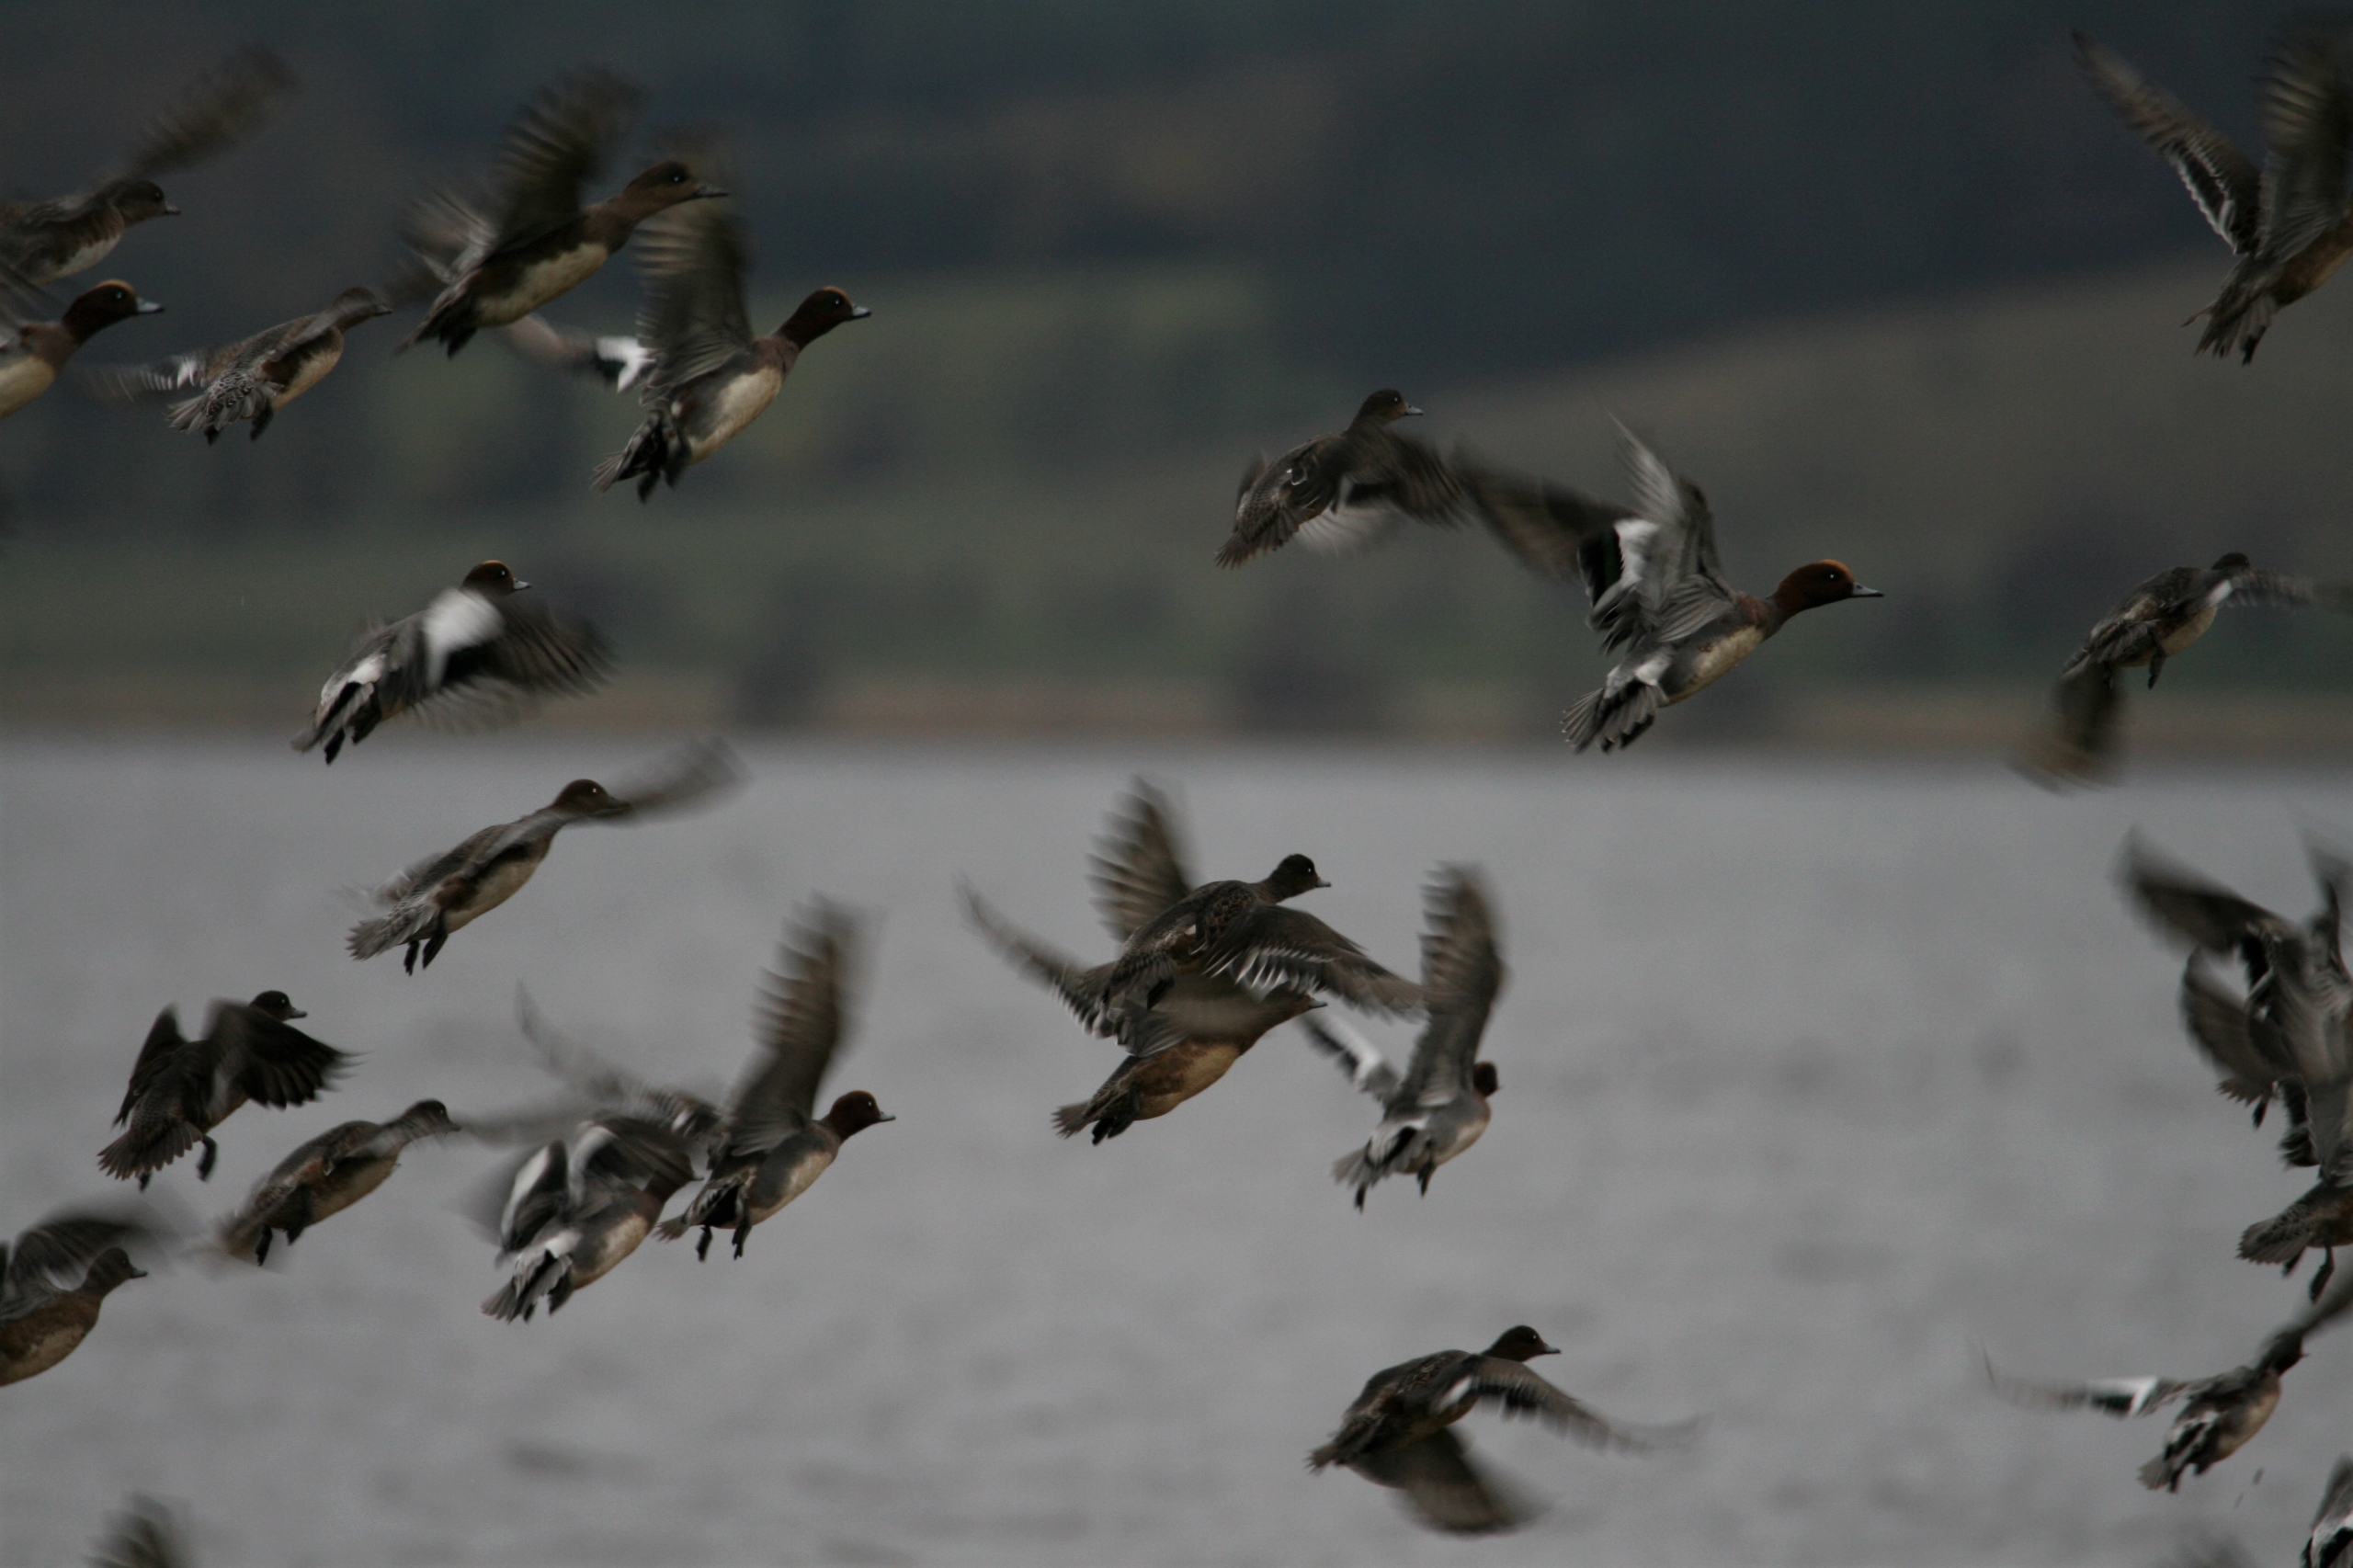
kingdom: Animalia
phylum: Chordata
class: Aves
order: Anseriformes
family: Anatidae
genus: Mareca
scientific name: Mareca penelope
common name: Pibeand
